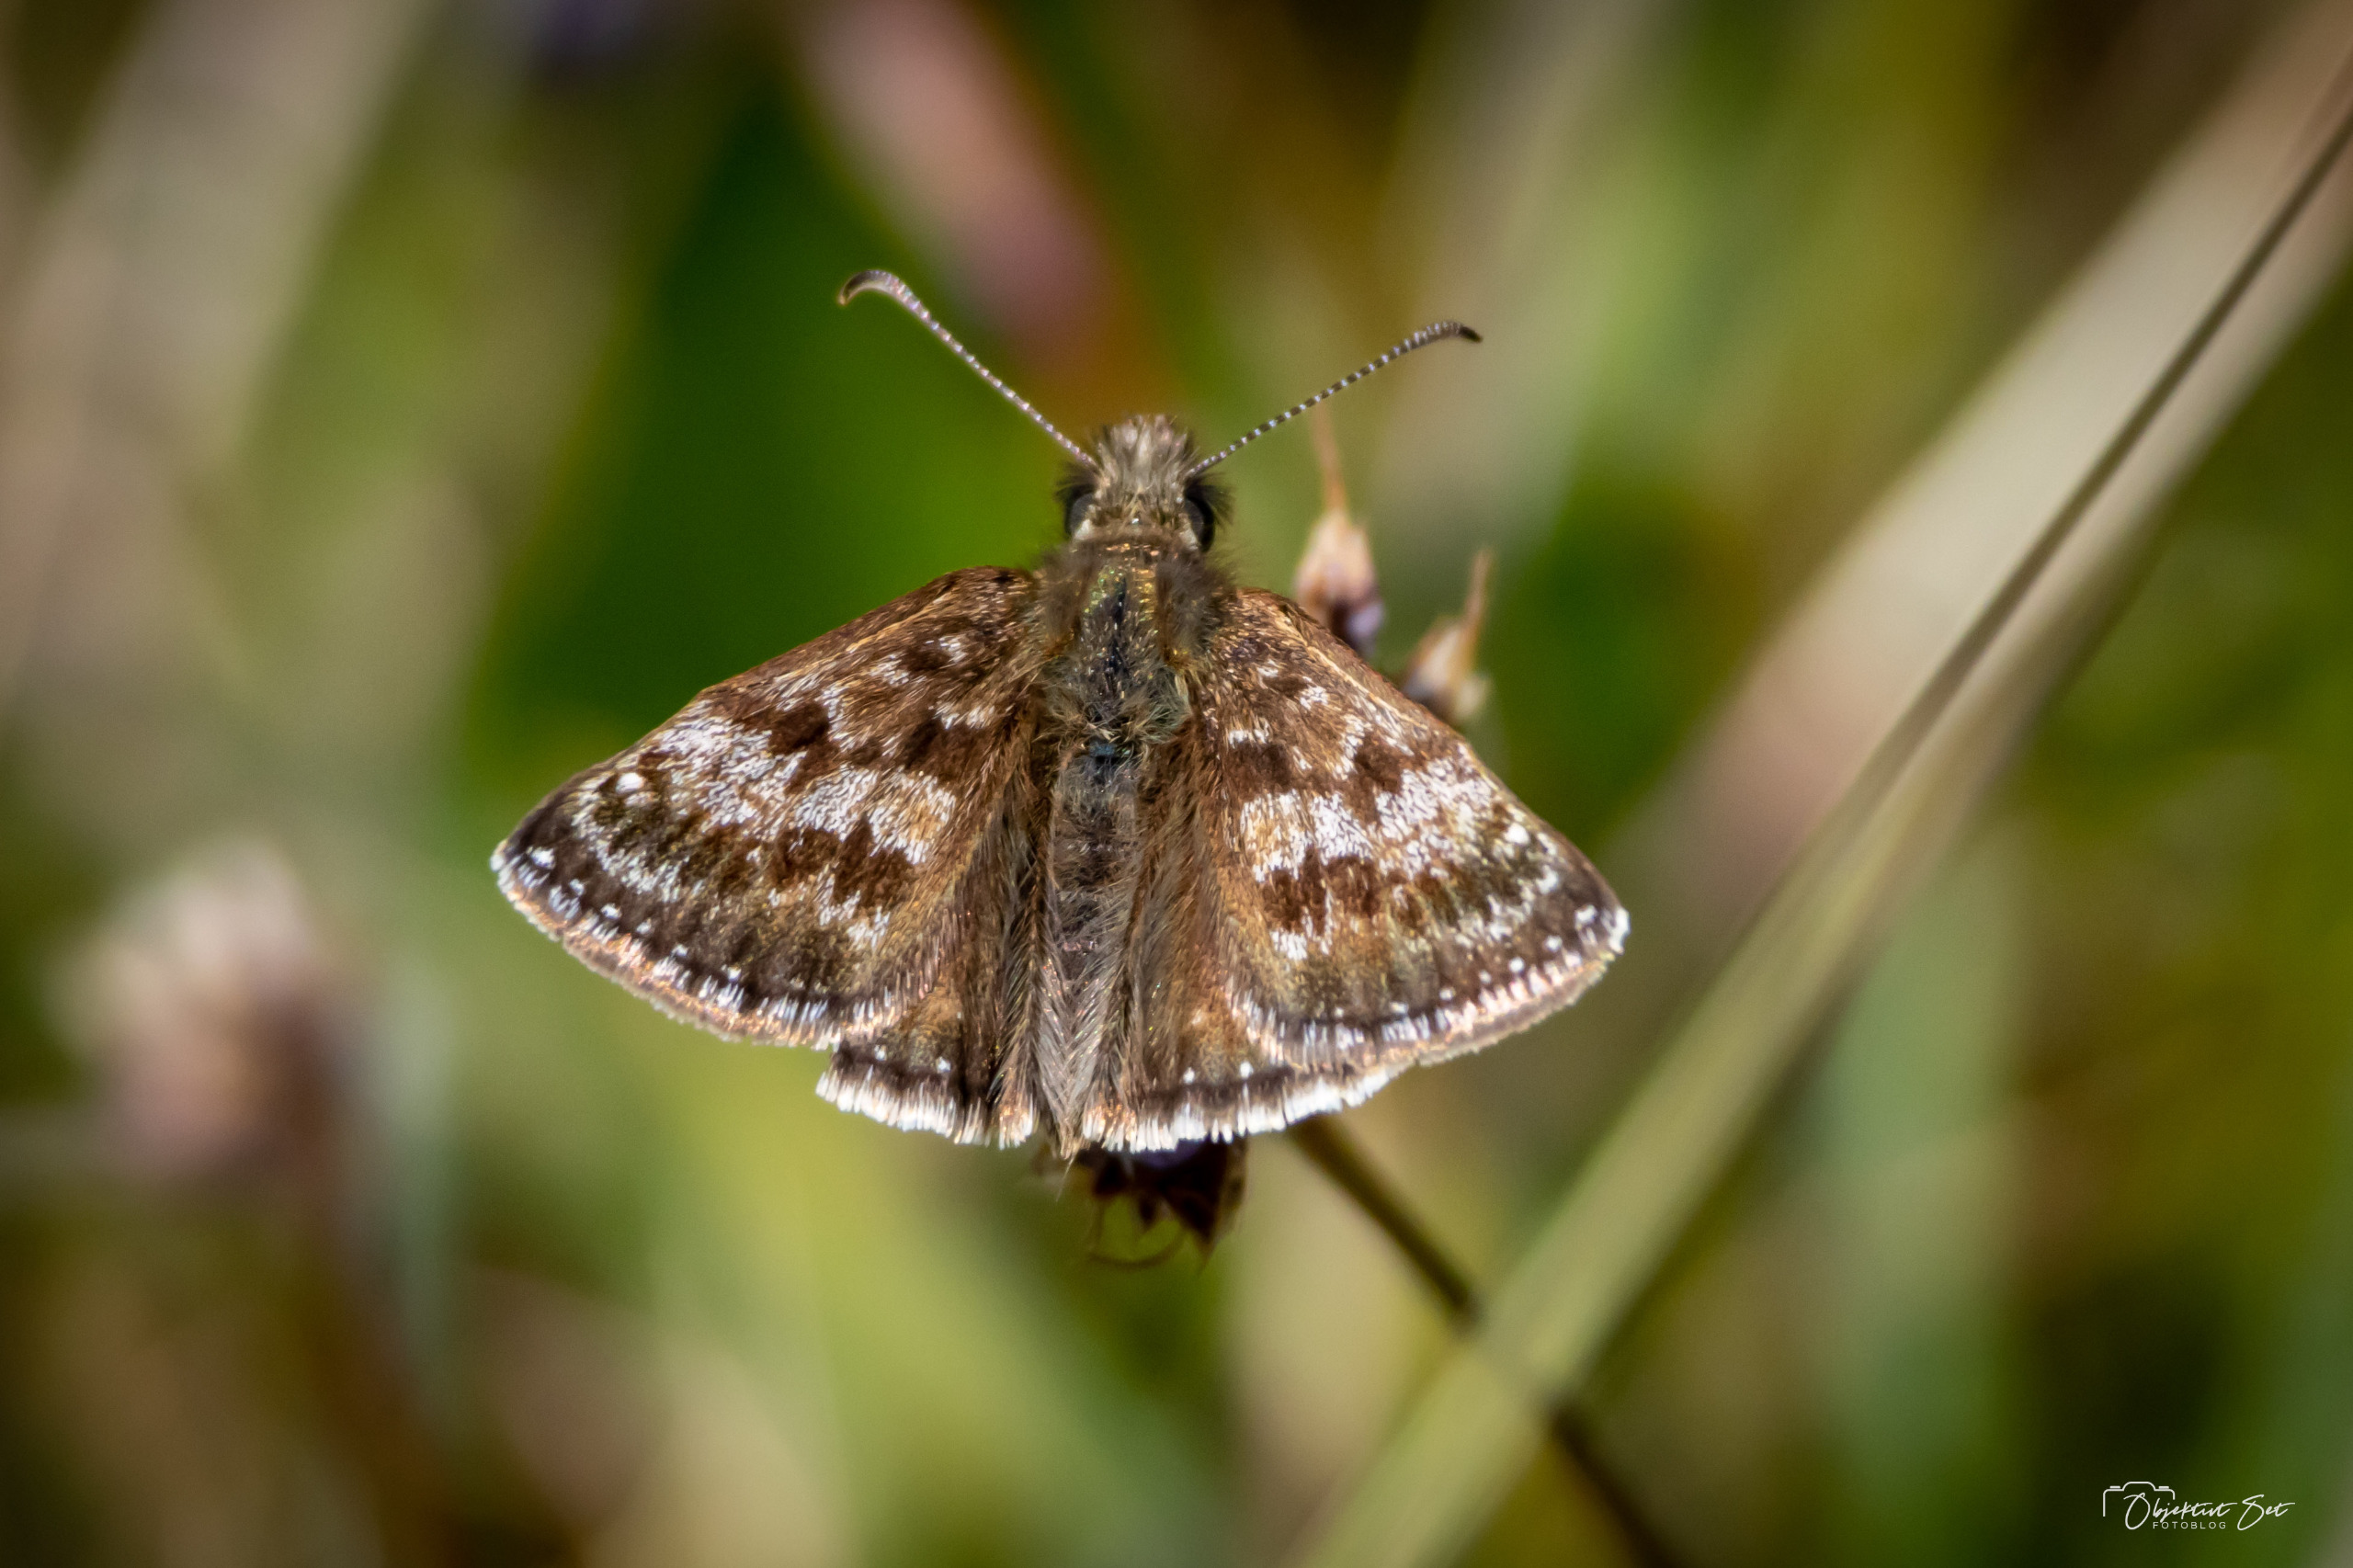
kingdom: Animalia
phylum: Arthropoda
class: Insecta
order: Lepidoptera
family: Hesperiidae
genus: Erynnis
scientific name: Erynnis tages
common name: Gråbåndet bredpande
